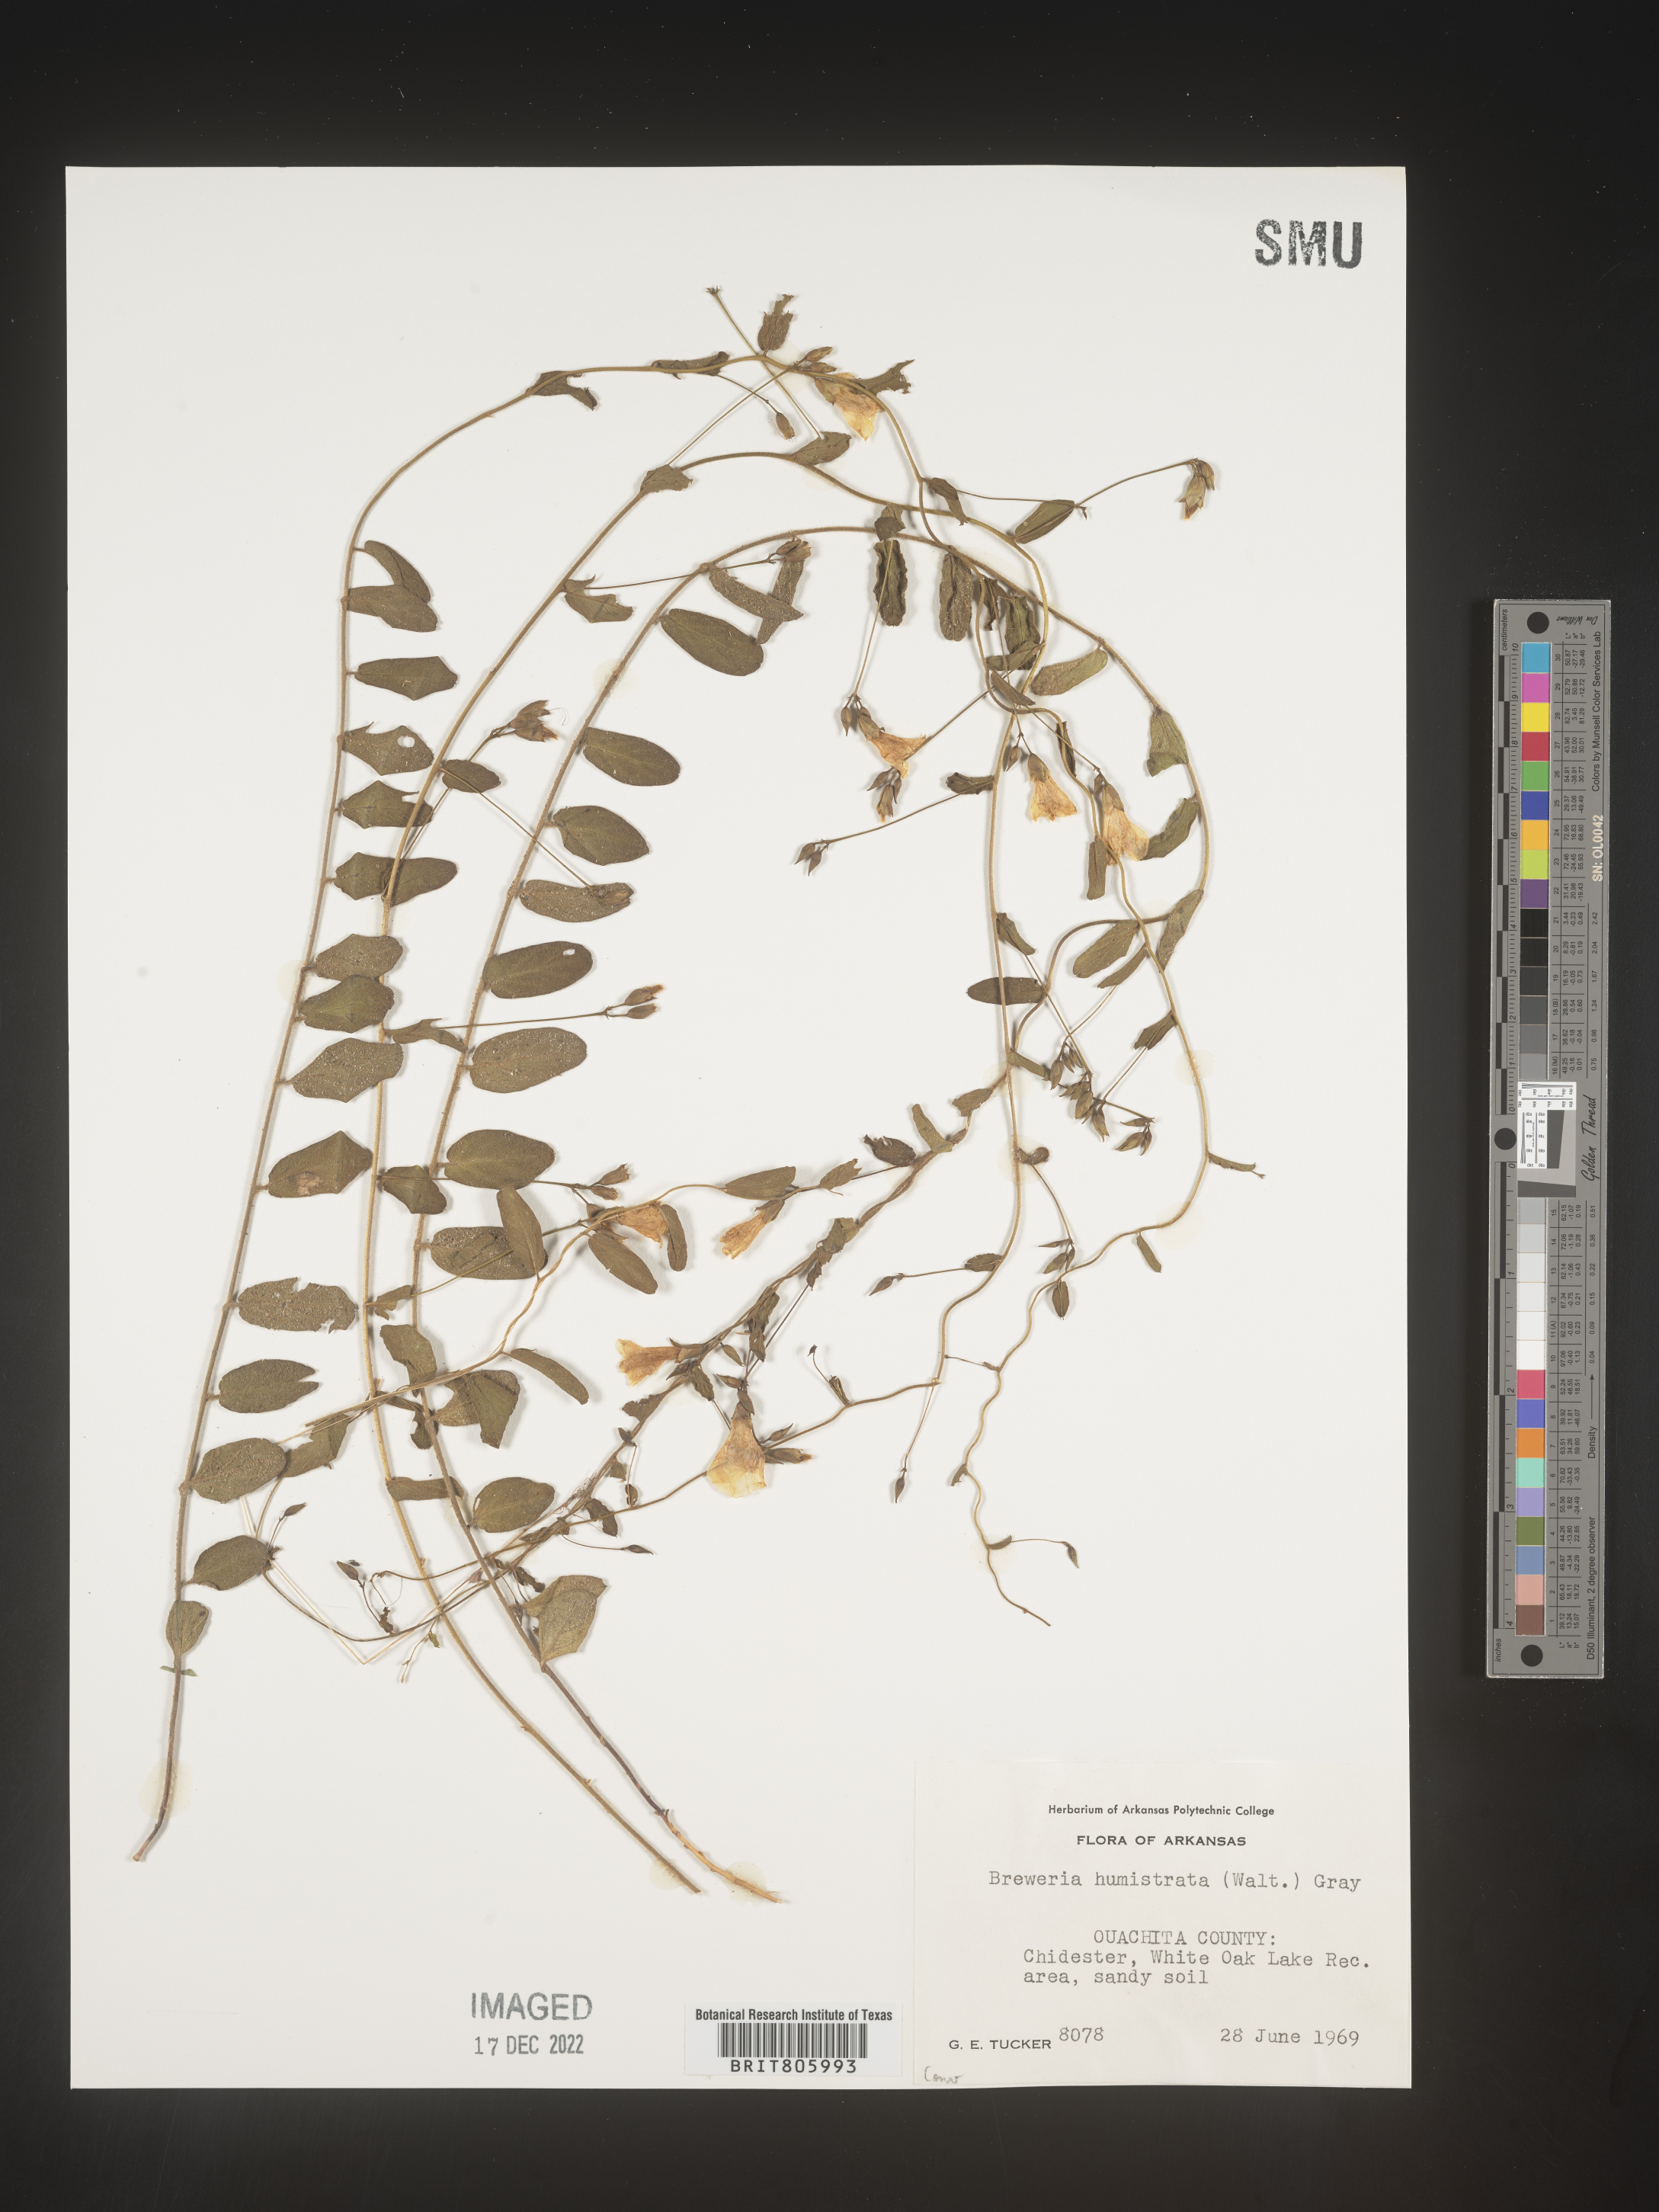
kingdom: Plantae
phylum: Tracheophyta
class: Magnoliopsida
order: Solanales
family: Convolvulaceae
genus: Stylisma
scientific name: Stylisma humistrata
